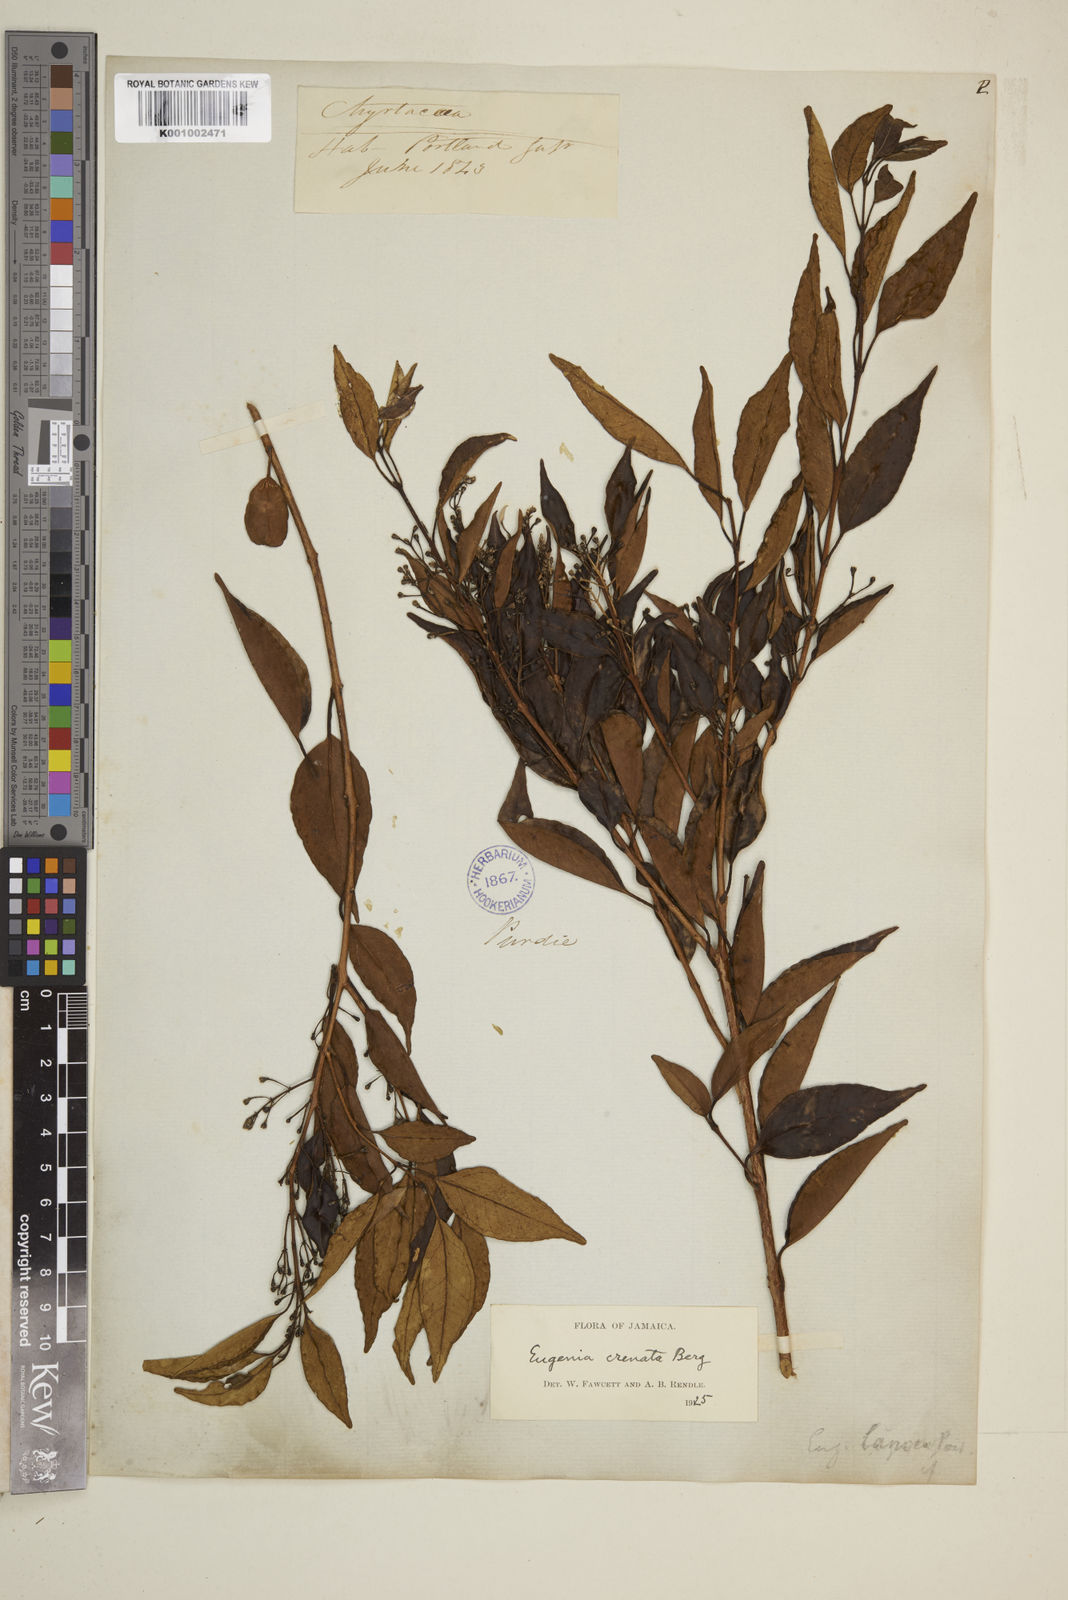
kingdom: Plantae
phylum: Tracheophyta
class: Magnoliopsida
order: Myrtales
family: Myrtaceae
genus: Eugenia
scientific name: Eugenia crenata
